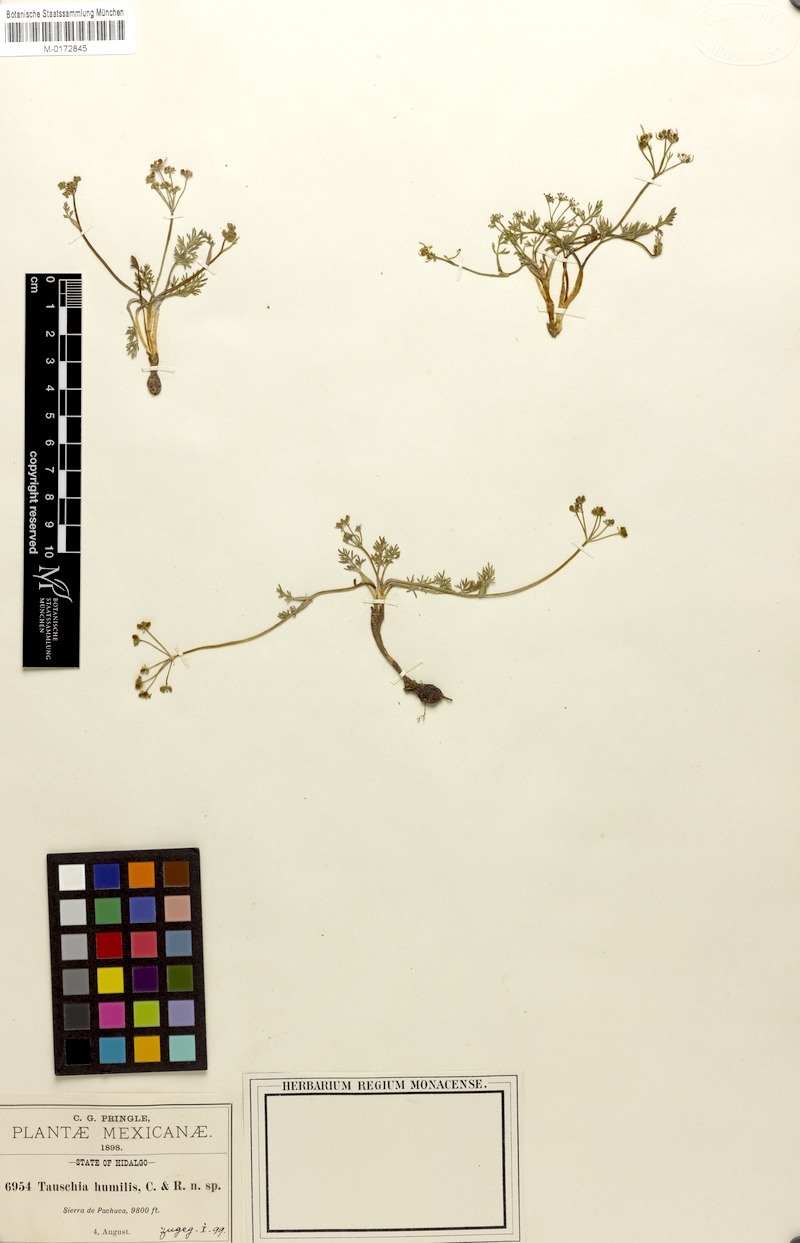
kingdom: Plantae
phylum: Tracheophyta
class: Magnoliopsida
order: Apiales
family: Apiaceae
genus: Tauschia
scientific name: Tauschia humilis
